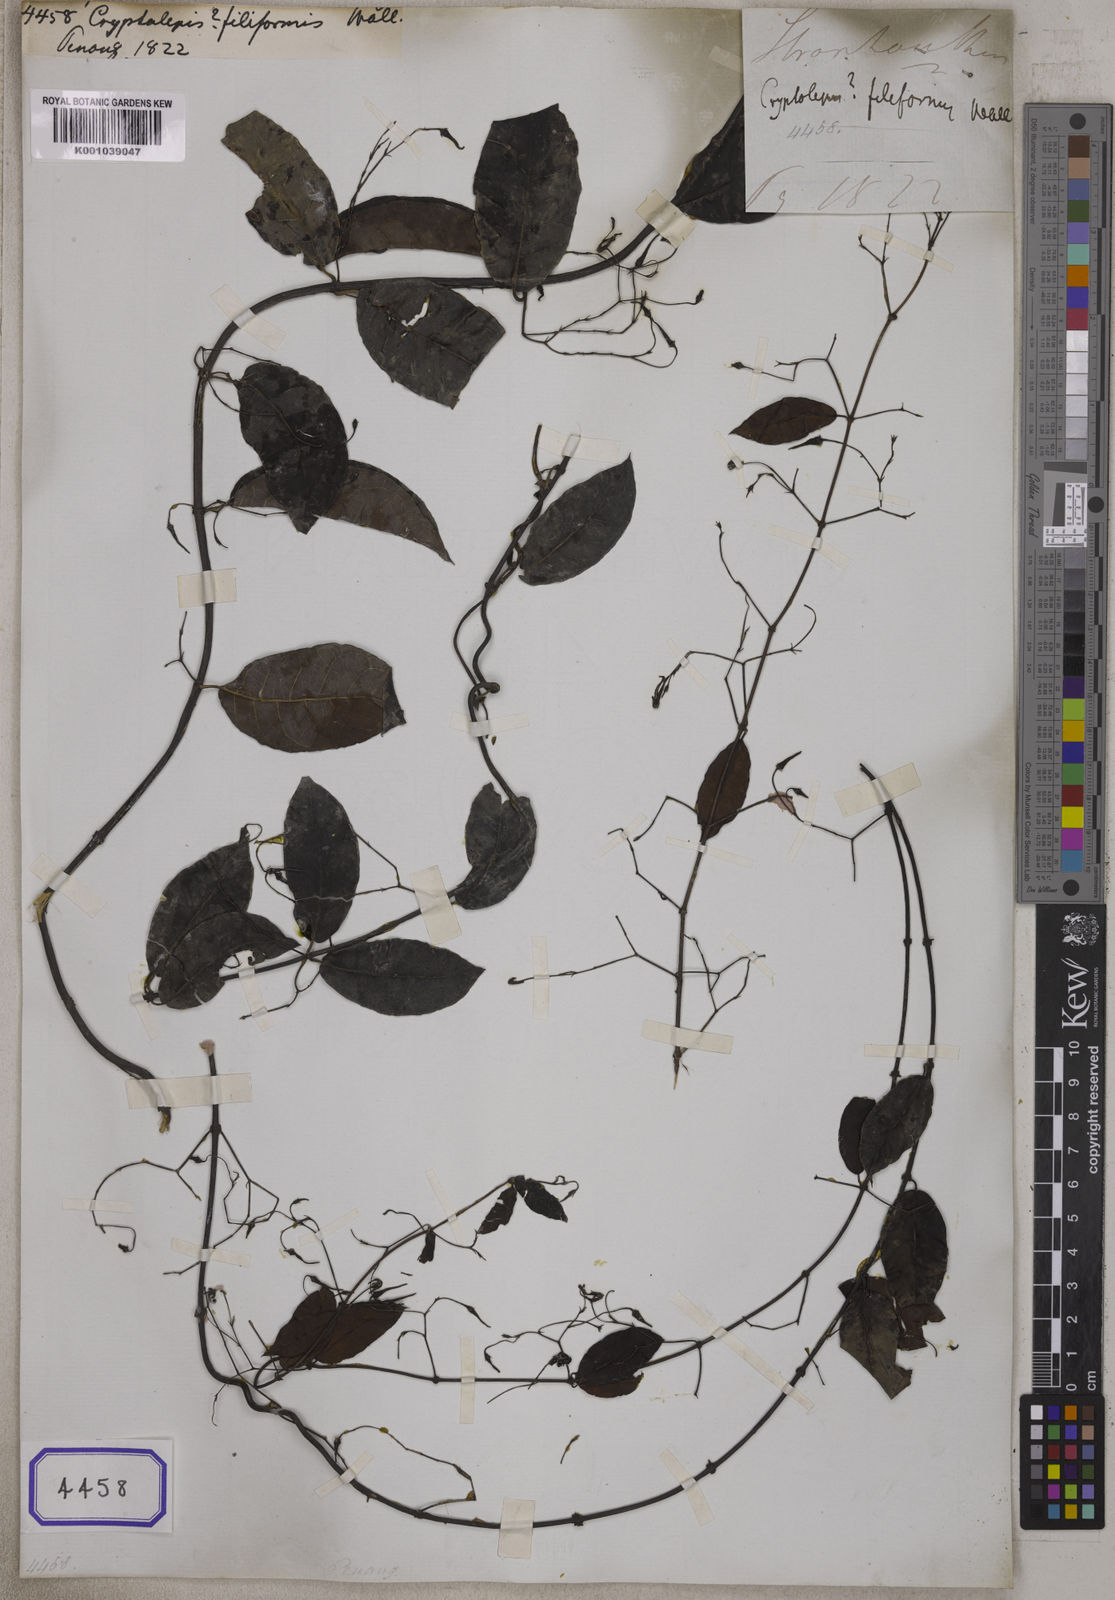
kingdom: Plantae
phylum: Tracheophyta
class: Magnoliopsida
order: Gentianales
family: Apocynaceae
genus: Atherandra
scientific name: Atherandra acutifolia
